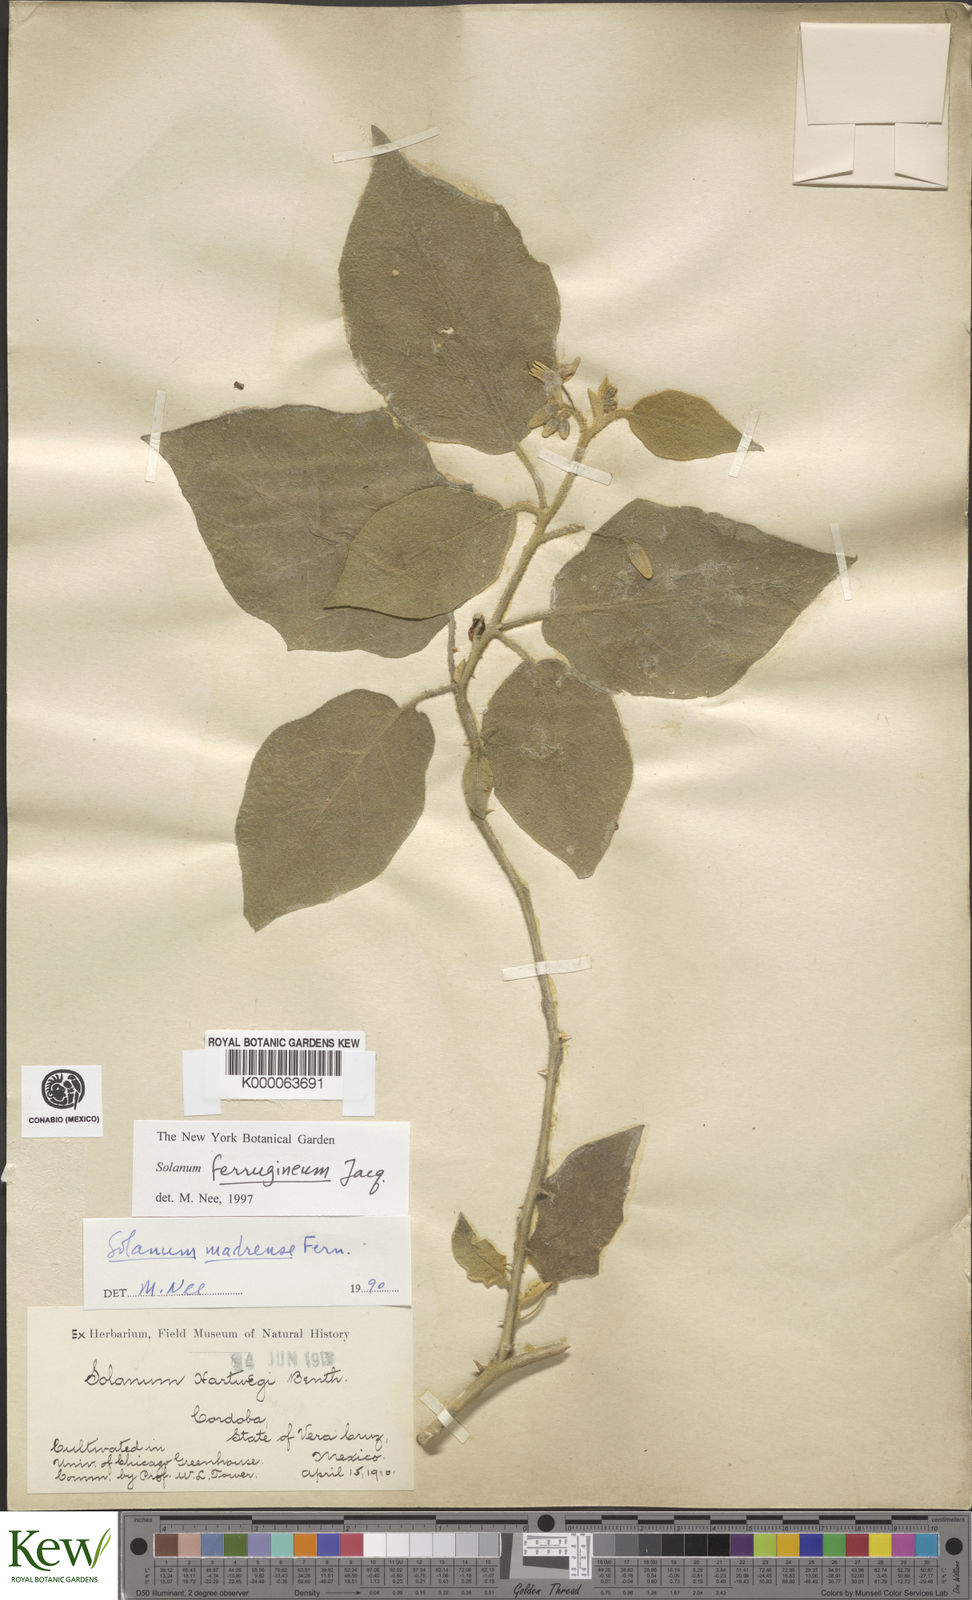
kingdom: Plantae
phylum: Tracheophyta
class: Magnoliopsida
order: Solanales
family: Solanaceae
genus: Solanum
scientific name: Solanum
